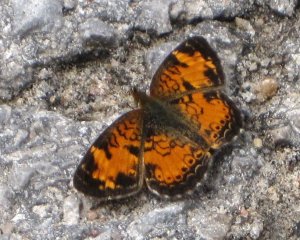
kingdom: Animalia
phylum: Arthropoda
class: Insecta
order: Lepidoptera
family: Nymphalidae
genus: Phyciodes
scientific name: Phyciodes tharos
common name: Northern Crescent
